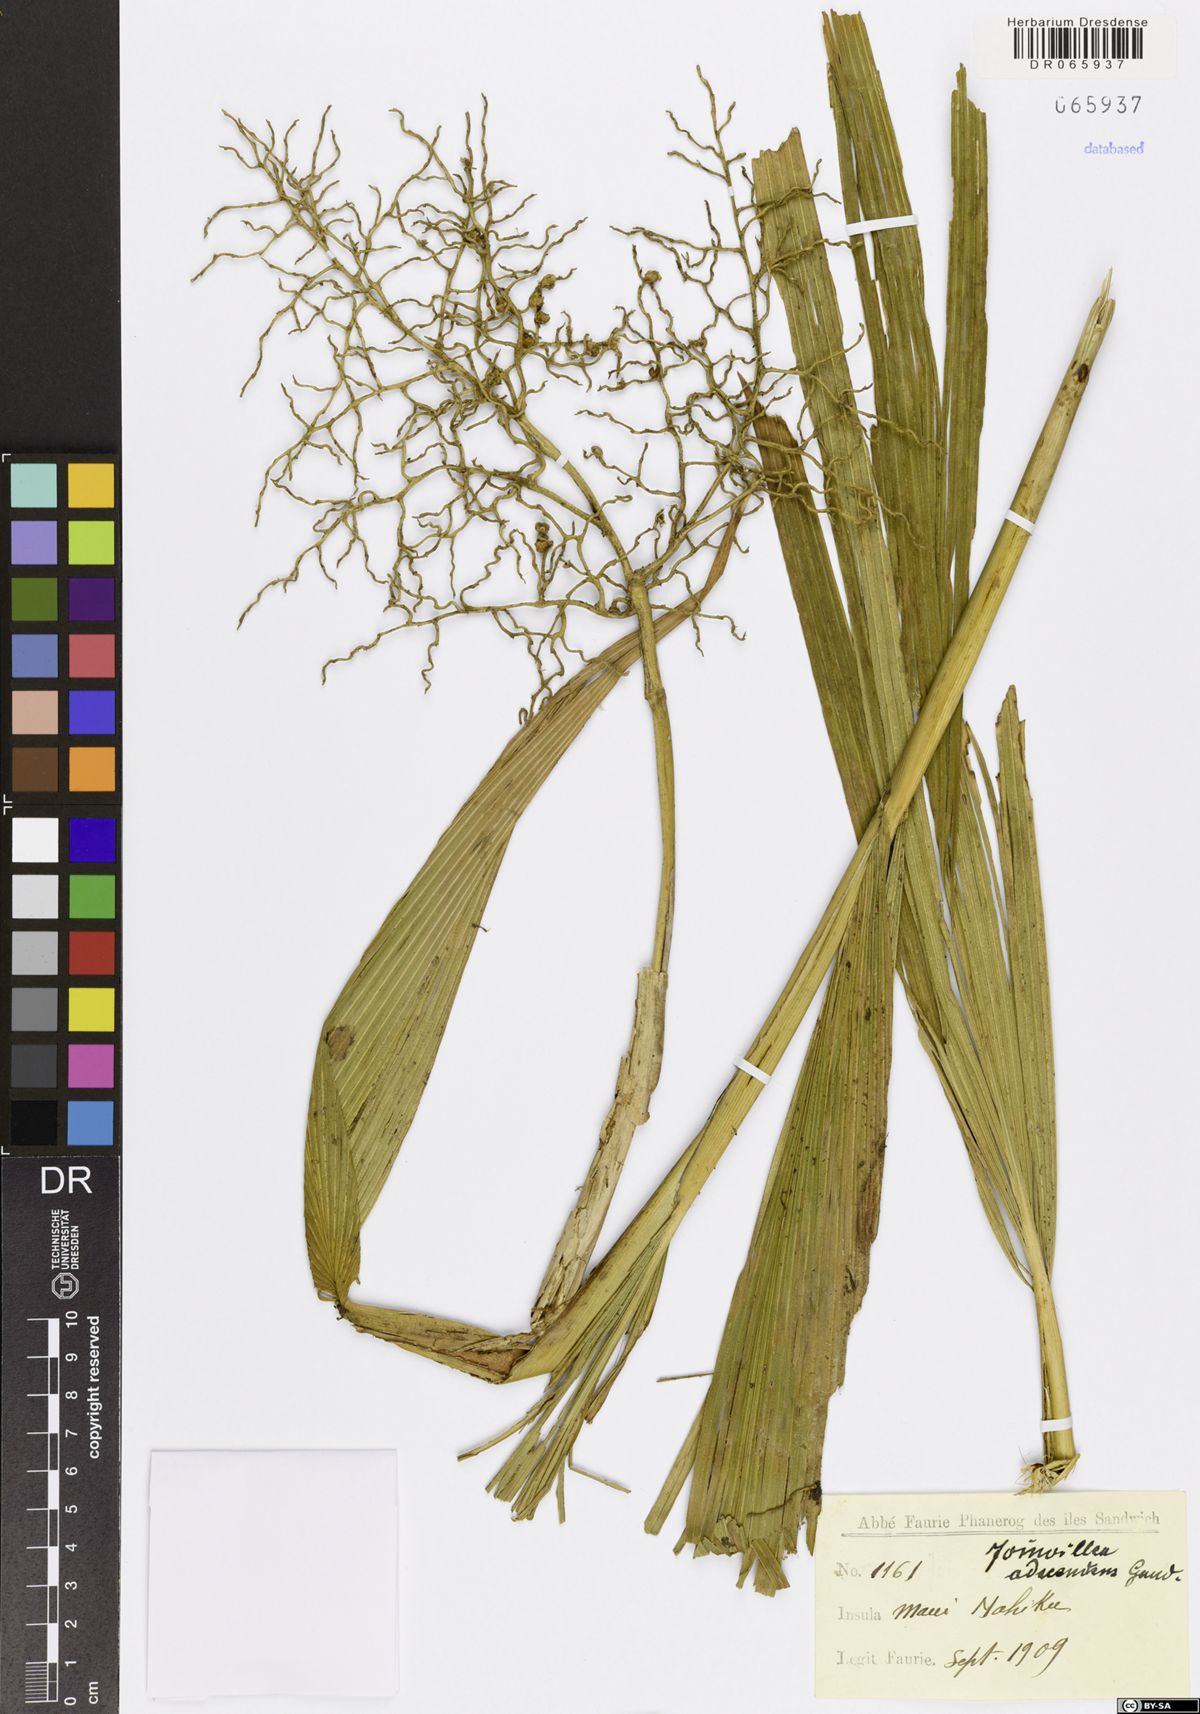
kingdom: Plantae
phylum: Tracheophyta
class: Liliopsida
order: Poales
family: Joinvilleaceae
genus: Joinvillea
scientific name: Joinvillea ascendens
